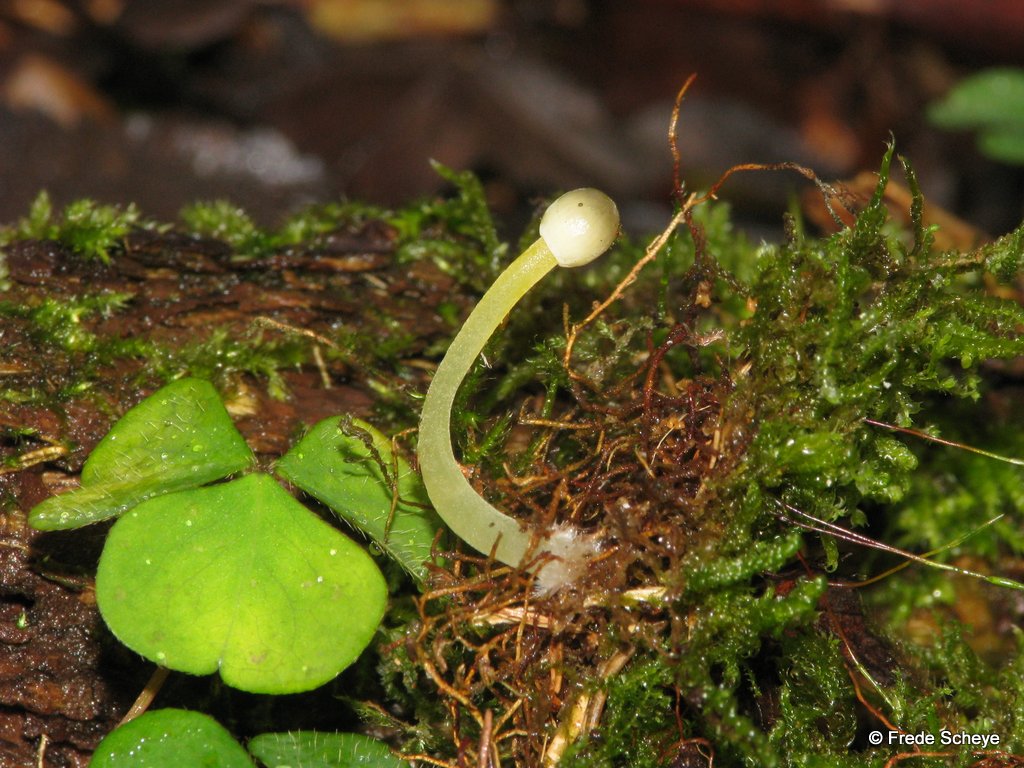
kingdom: Fungi
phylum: Basidiomycota
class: Agaricomycetes
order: Agaricales
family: Mycenaceae
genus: Mycena
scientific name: Mycena epipterygia
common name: gulstokket huesvamp
